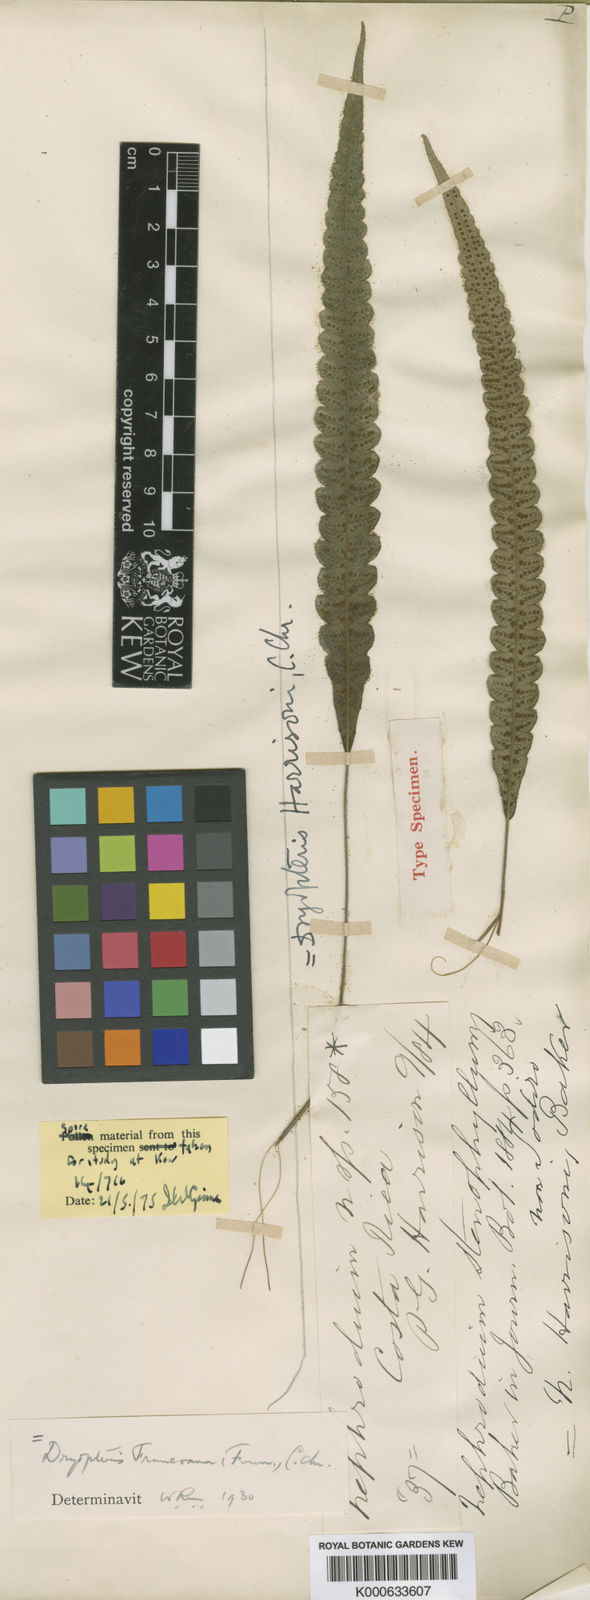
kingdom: Plantae
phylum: Tracheophyta
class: Polypodiopsida
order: Polypodiales
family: Thelypteridaceae
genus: Goniopteris
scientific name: Goniopteris
